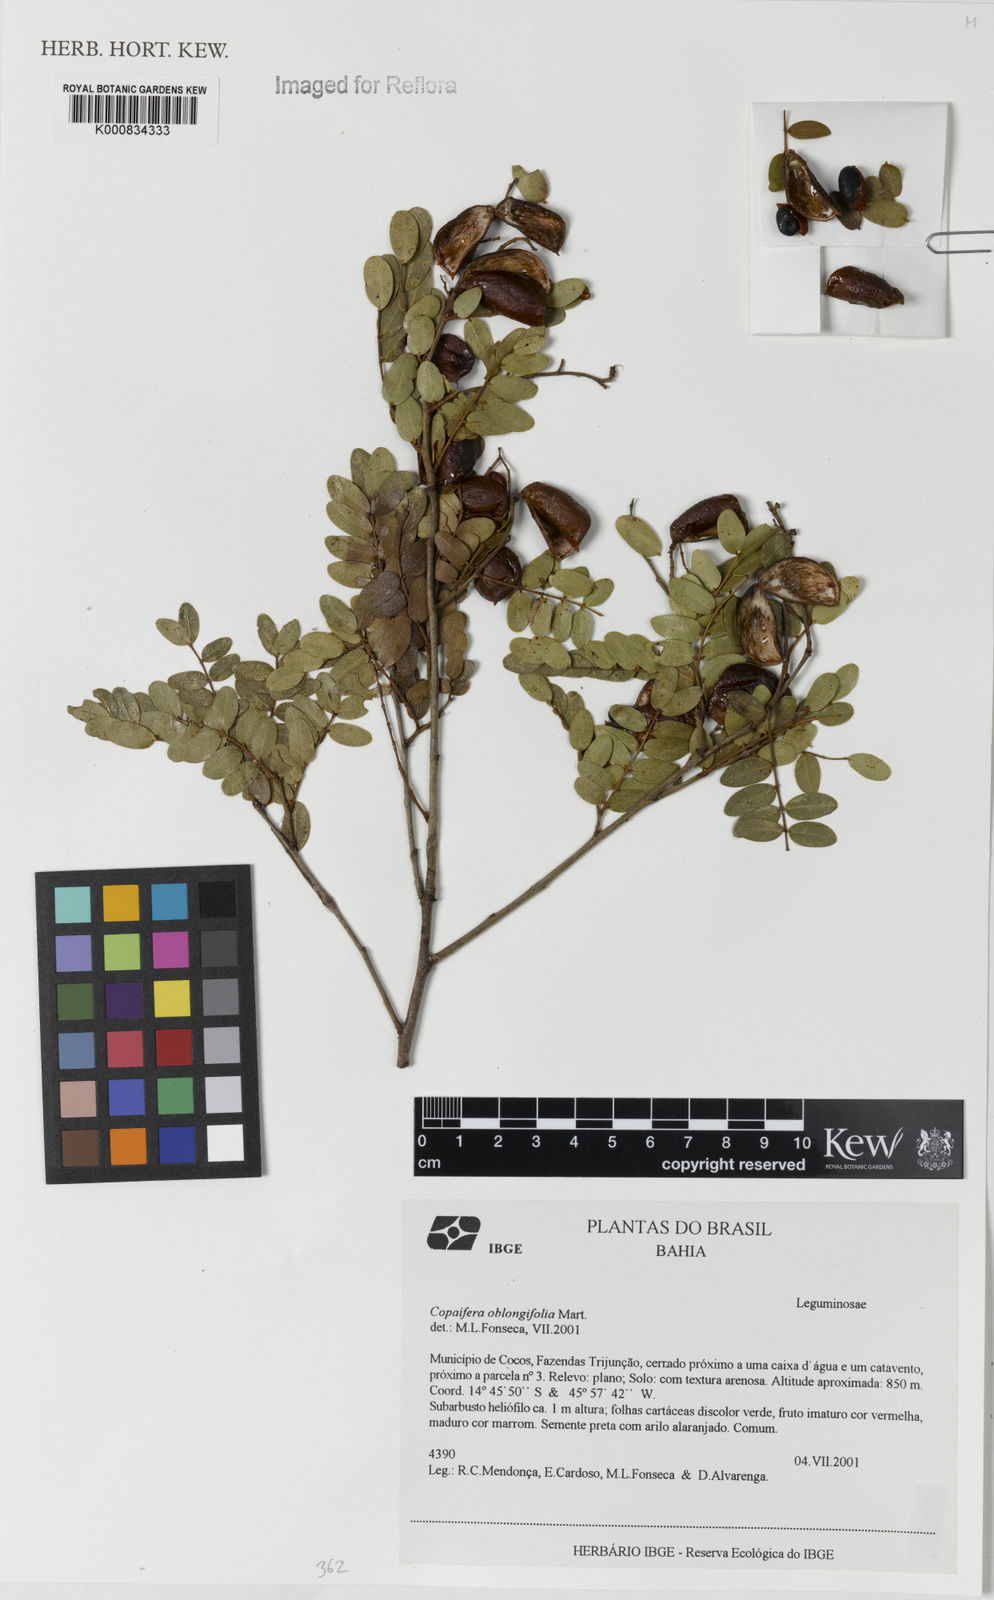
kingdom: Plantae
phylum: Tracheophyta
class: Magnoliopsida
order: Fabales
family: Fabaceae
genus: Copaifera
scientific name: Copaifera oblongifolia
